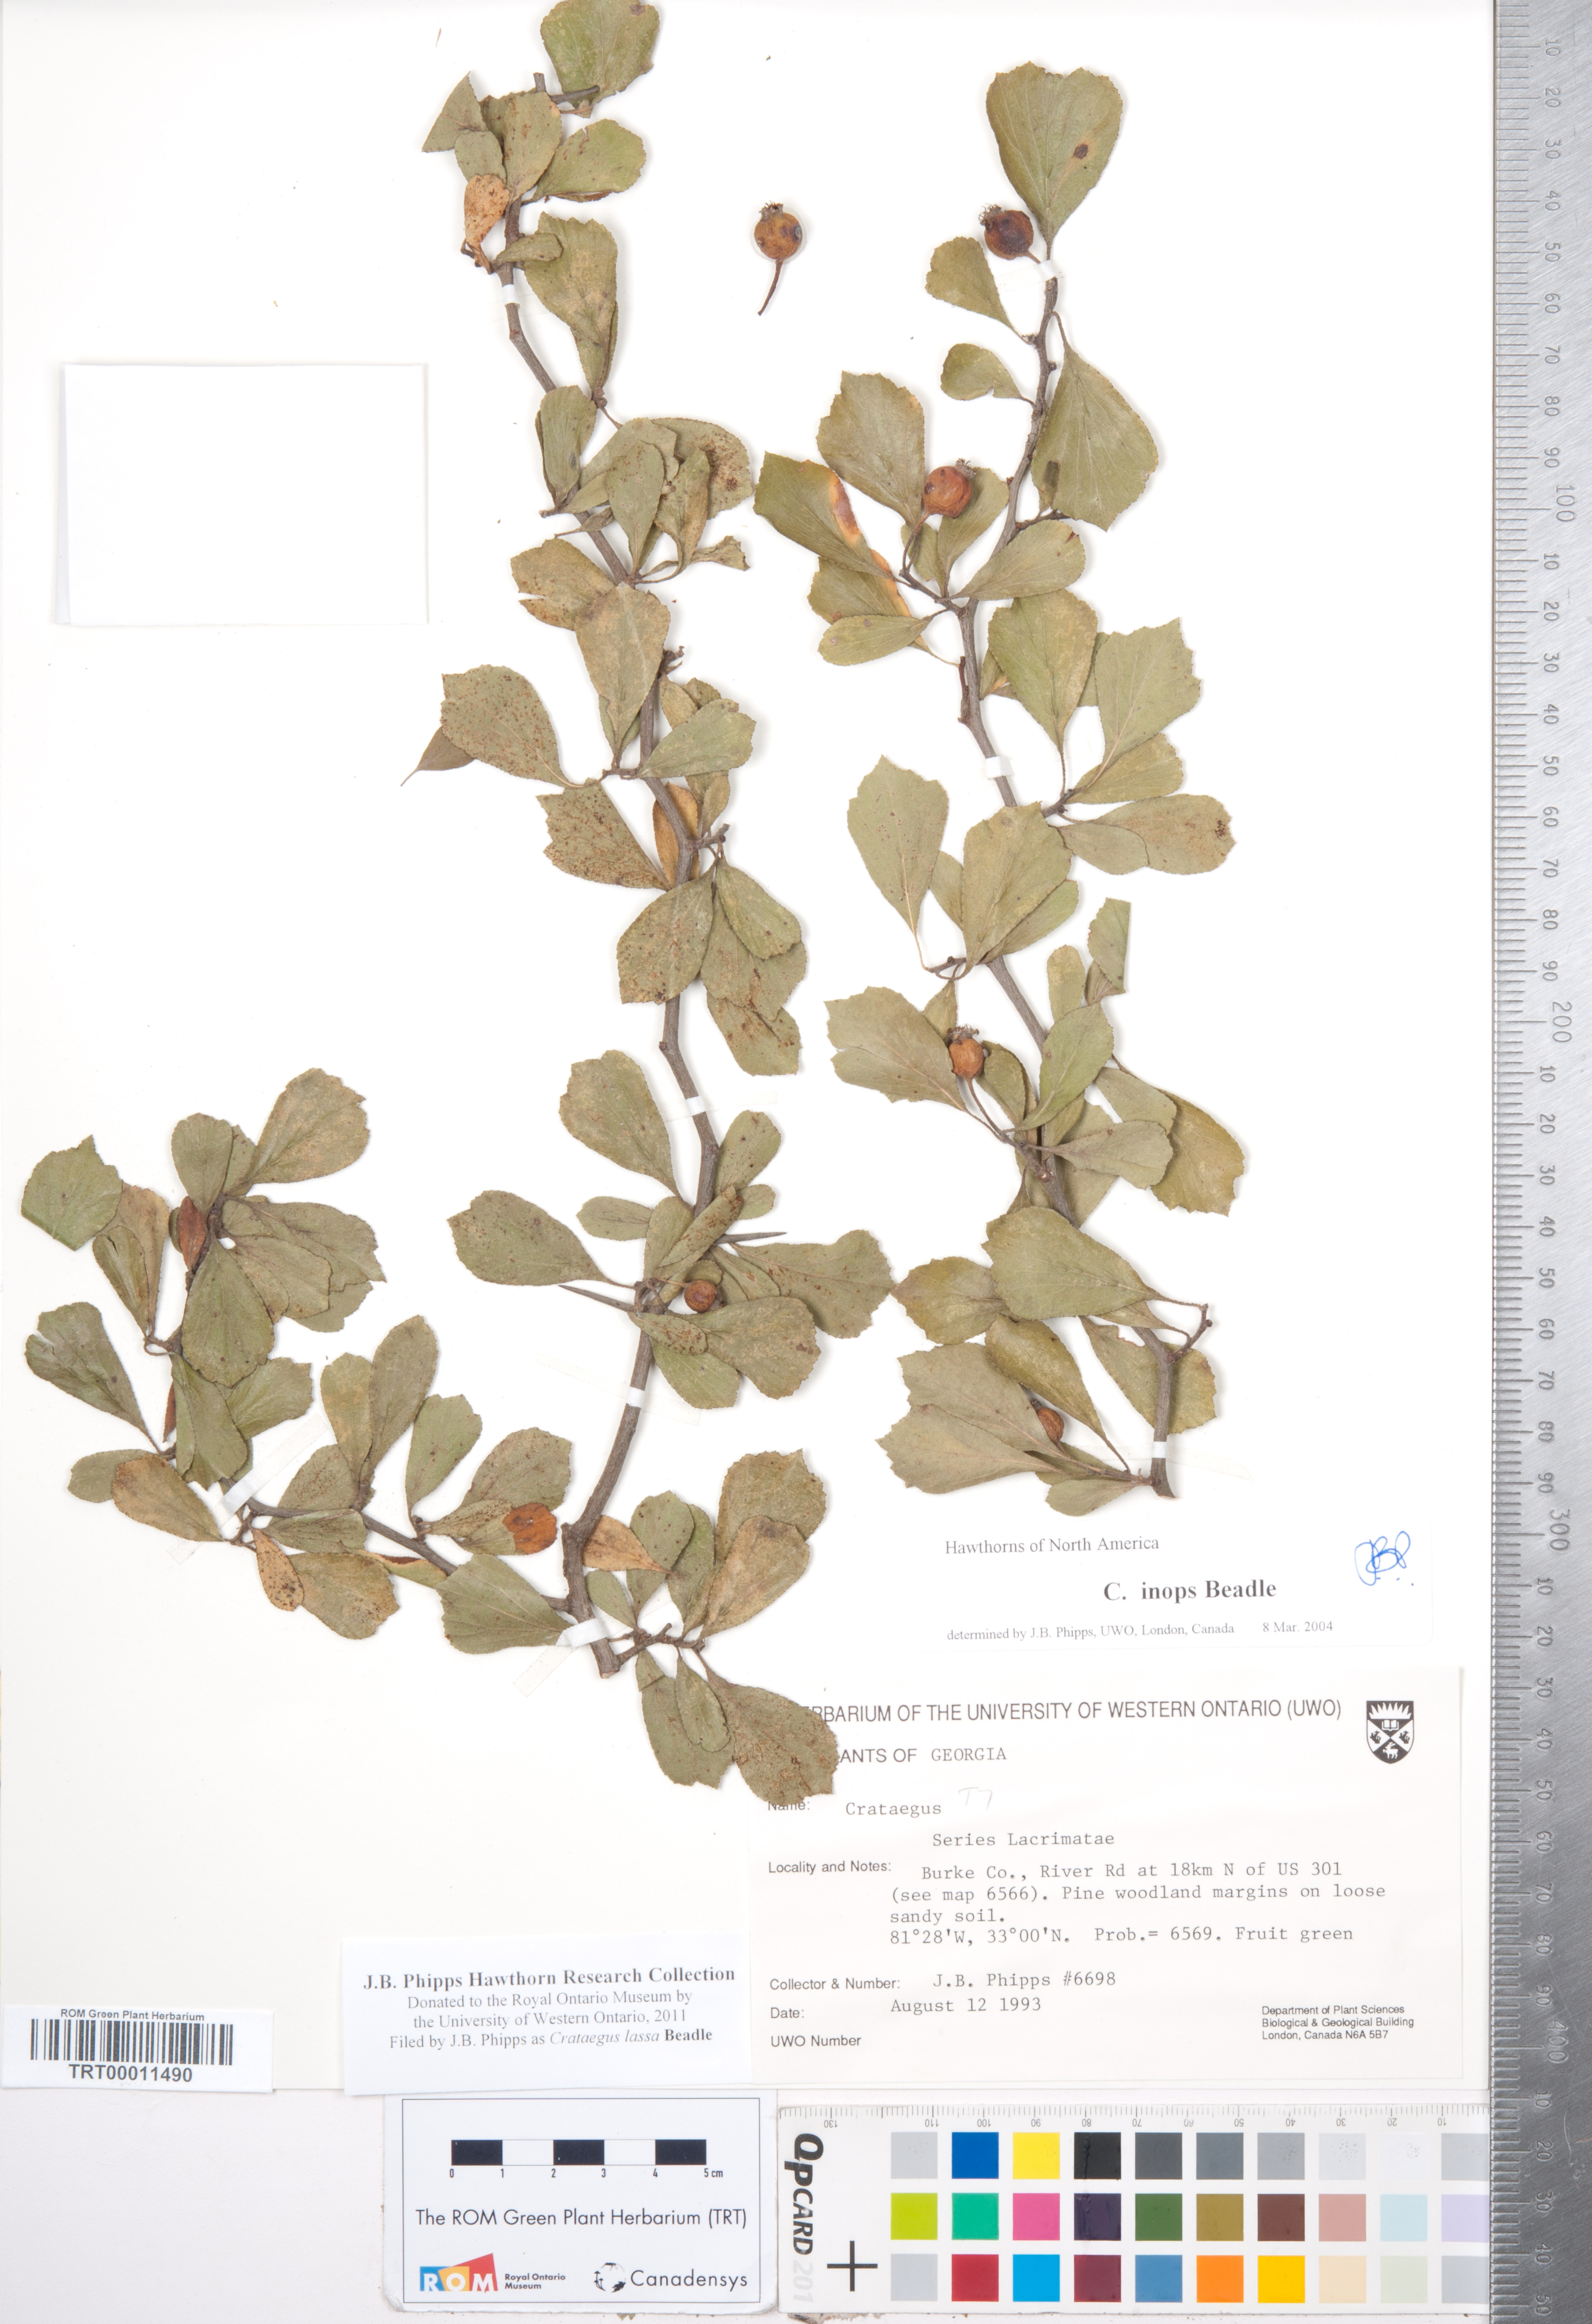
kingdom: Plantae
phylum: Tracheophyta
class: Magnoliopsida
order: Rosales
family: Rosaceae
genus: Crataegus
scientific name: Crataegus lassa
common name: Florida hawthorn
